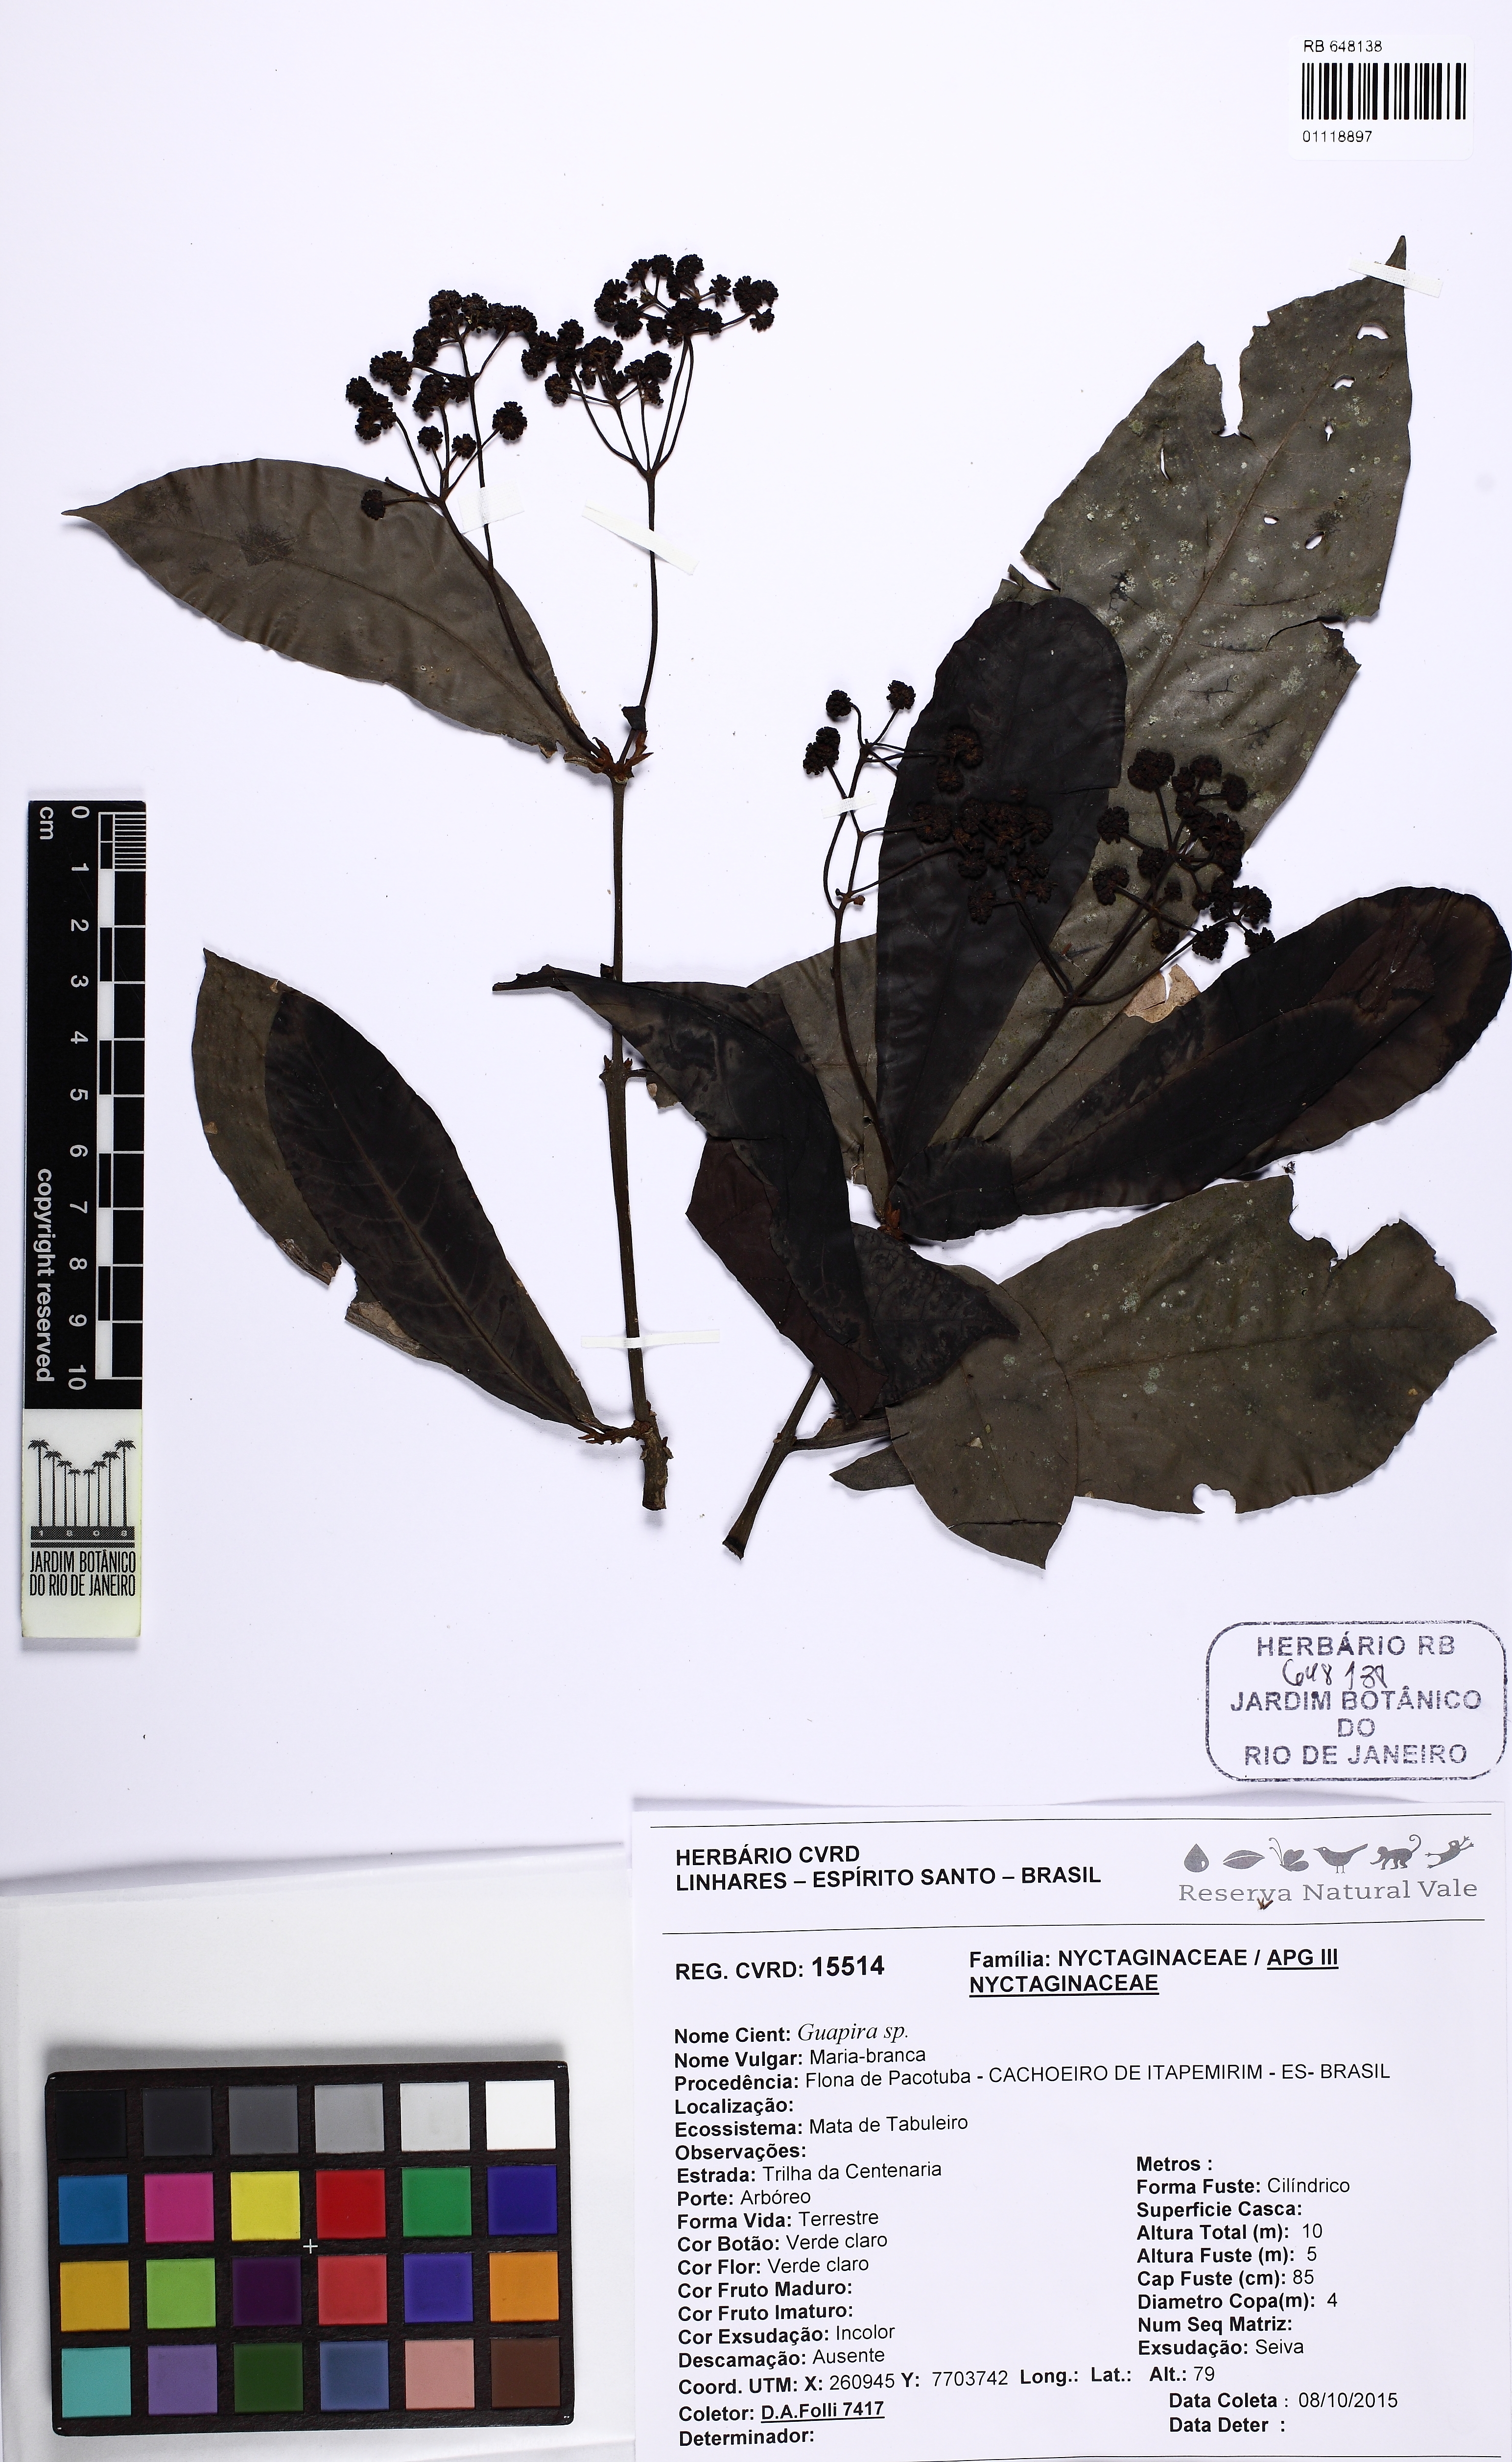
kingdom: Plantae
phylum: Tracheophyta
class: Magnoliopsida
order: Caryophyllales
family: Nyctaginaceae
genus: Guapira
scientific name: Guapira
